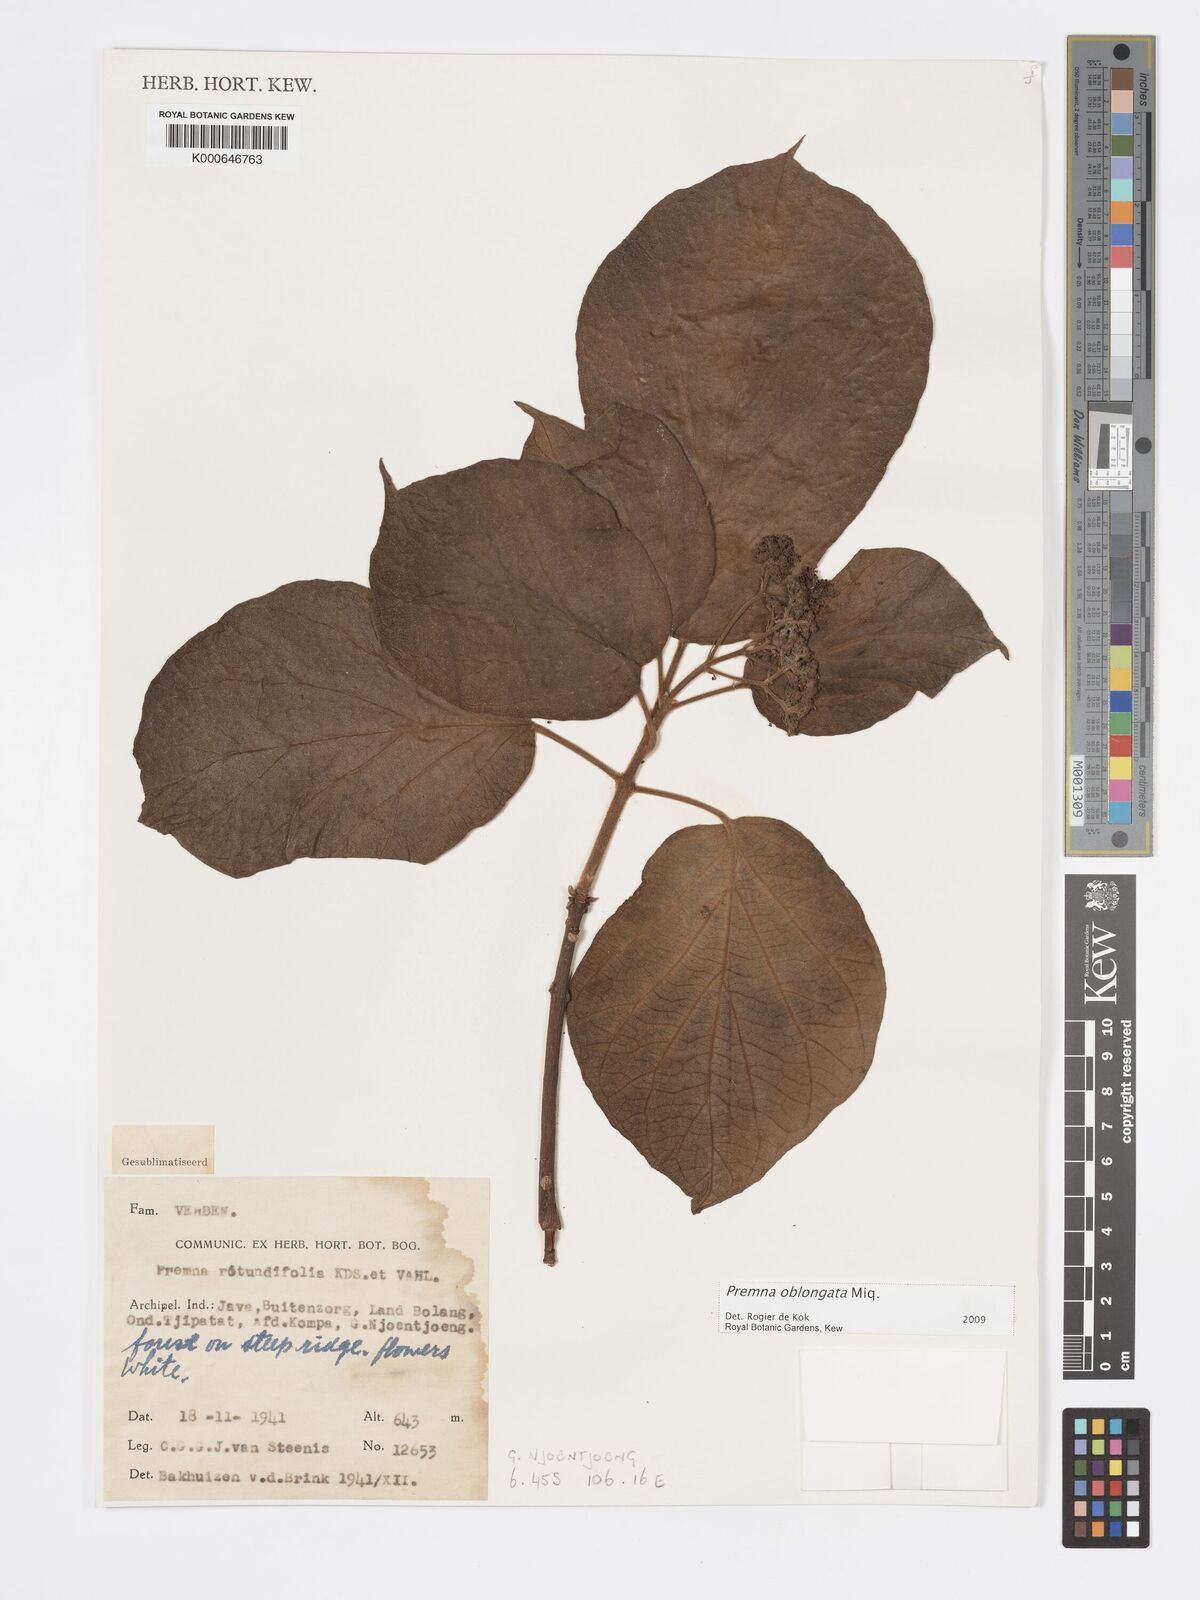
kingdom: Plantae
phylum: Tracheophyta
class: Magnoliopsida
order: Lamiales
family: Lamiaceae
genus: Premna
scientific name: Premna oblongata
